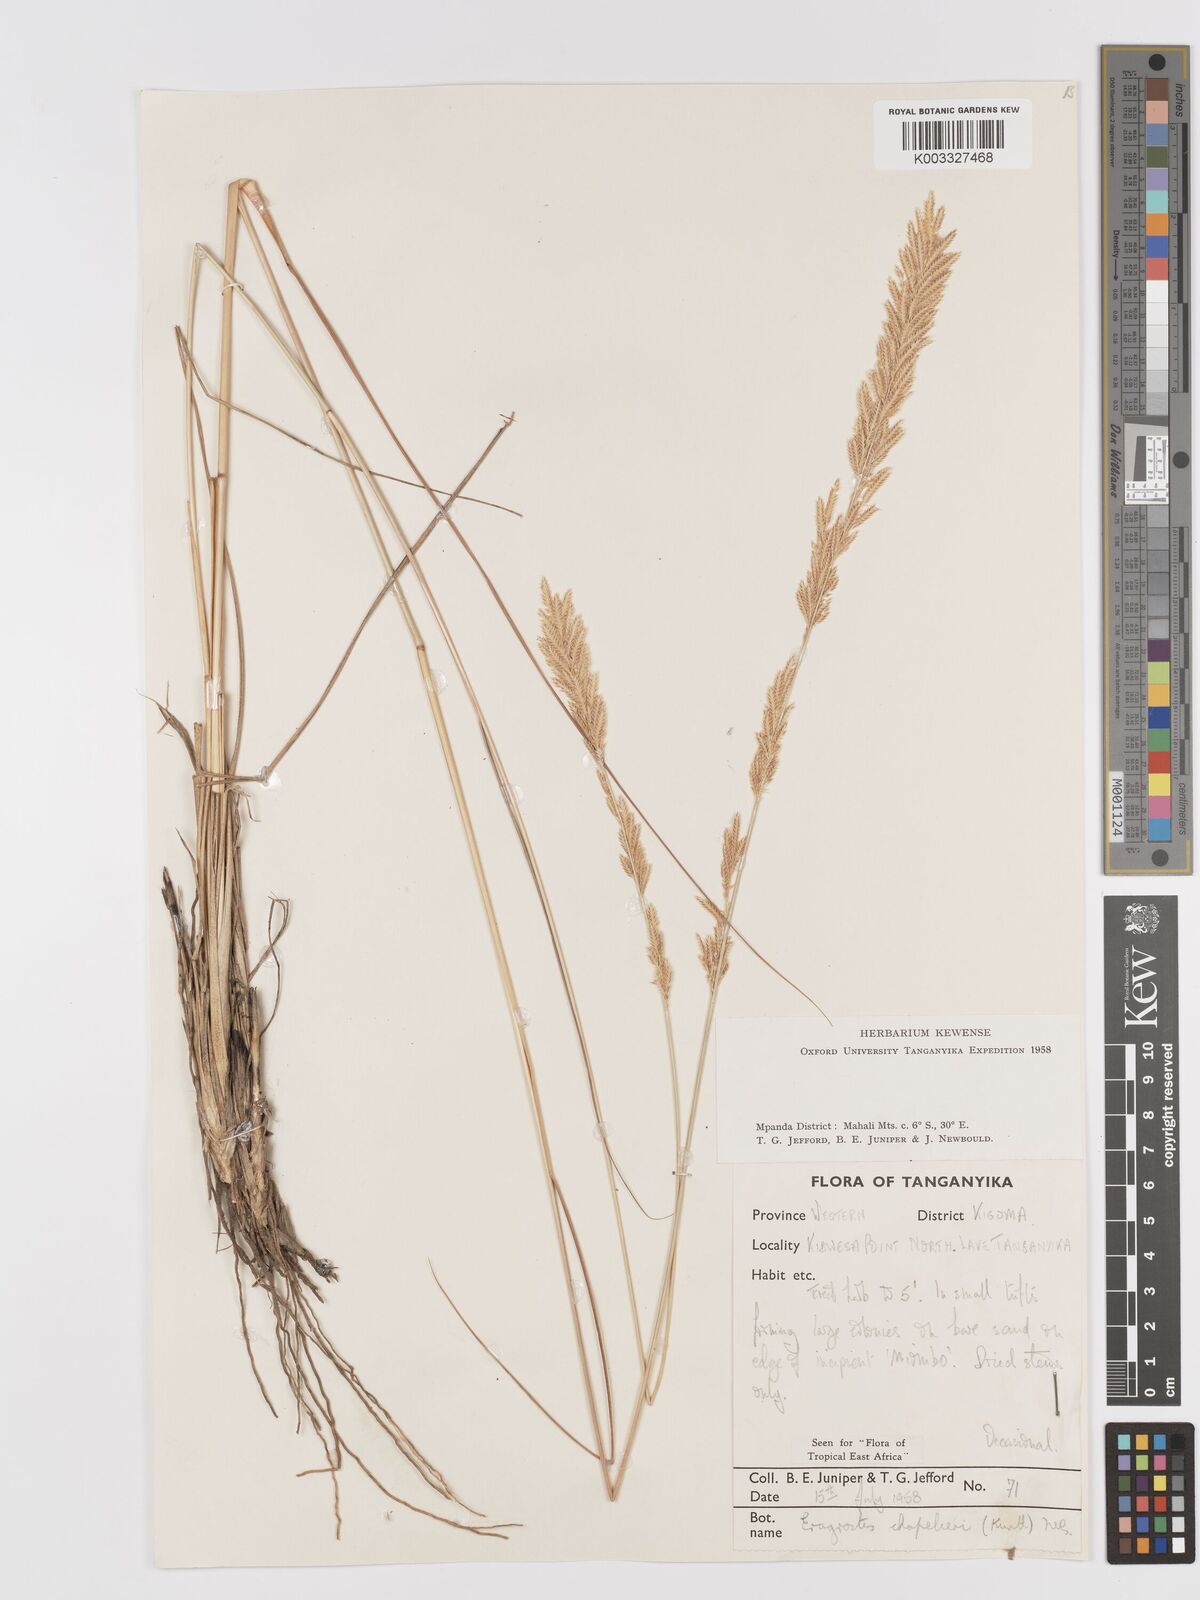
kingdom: Plantae
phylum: Tracheophyta
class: Liliopsida
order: Poales
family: Poaceae
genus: Eragrostis
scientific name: Eragrostis chapelieri
